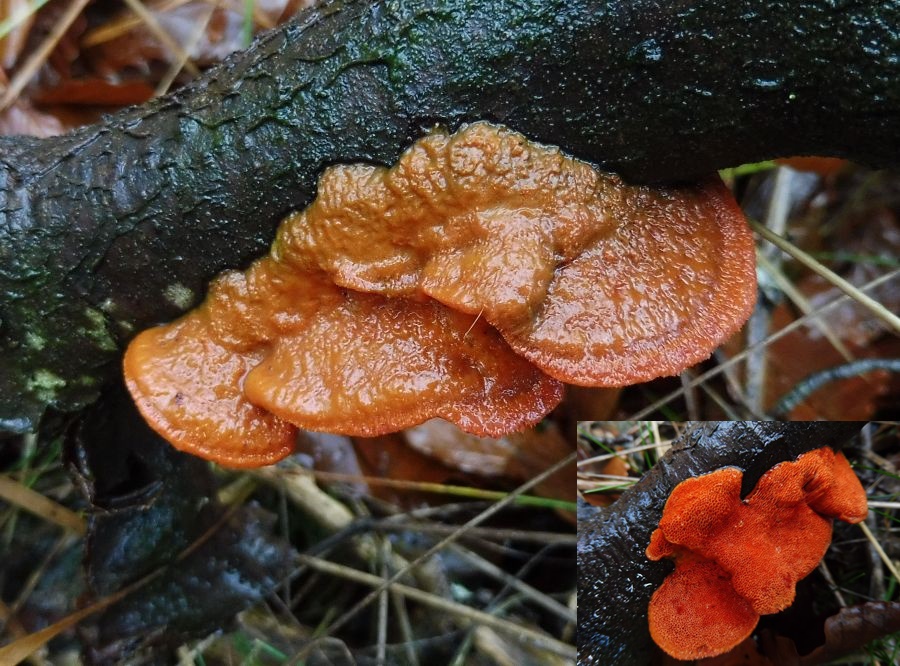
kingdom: Fungi
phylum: Basidiomycota
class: Agaricomycetes
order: Polyporales
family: Polyporaceae
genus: Trametes
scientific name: Trametes cinnabarina
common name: cinnoberporesvamp
